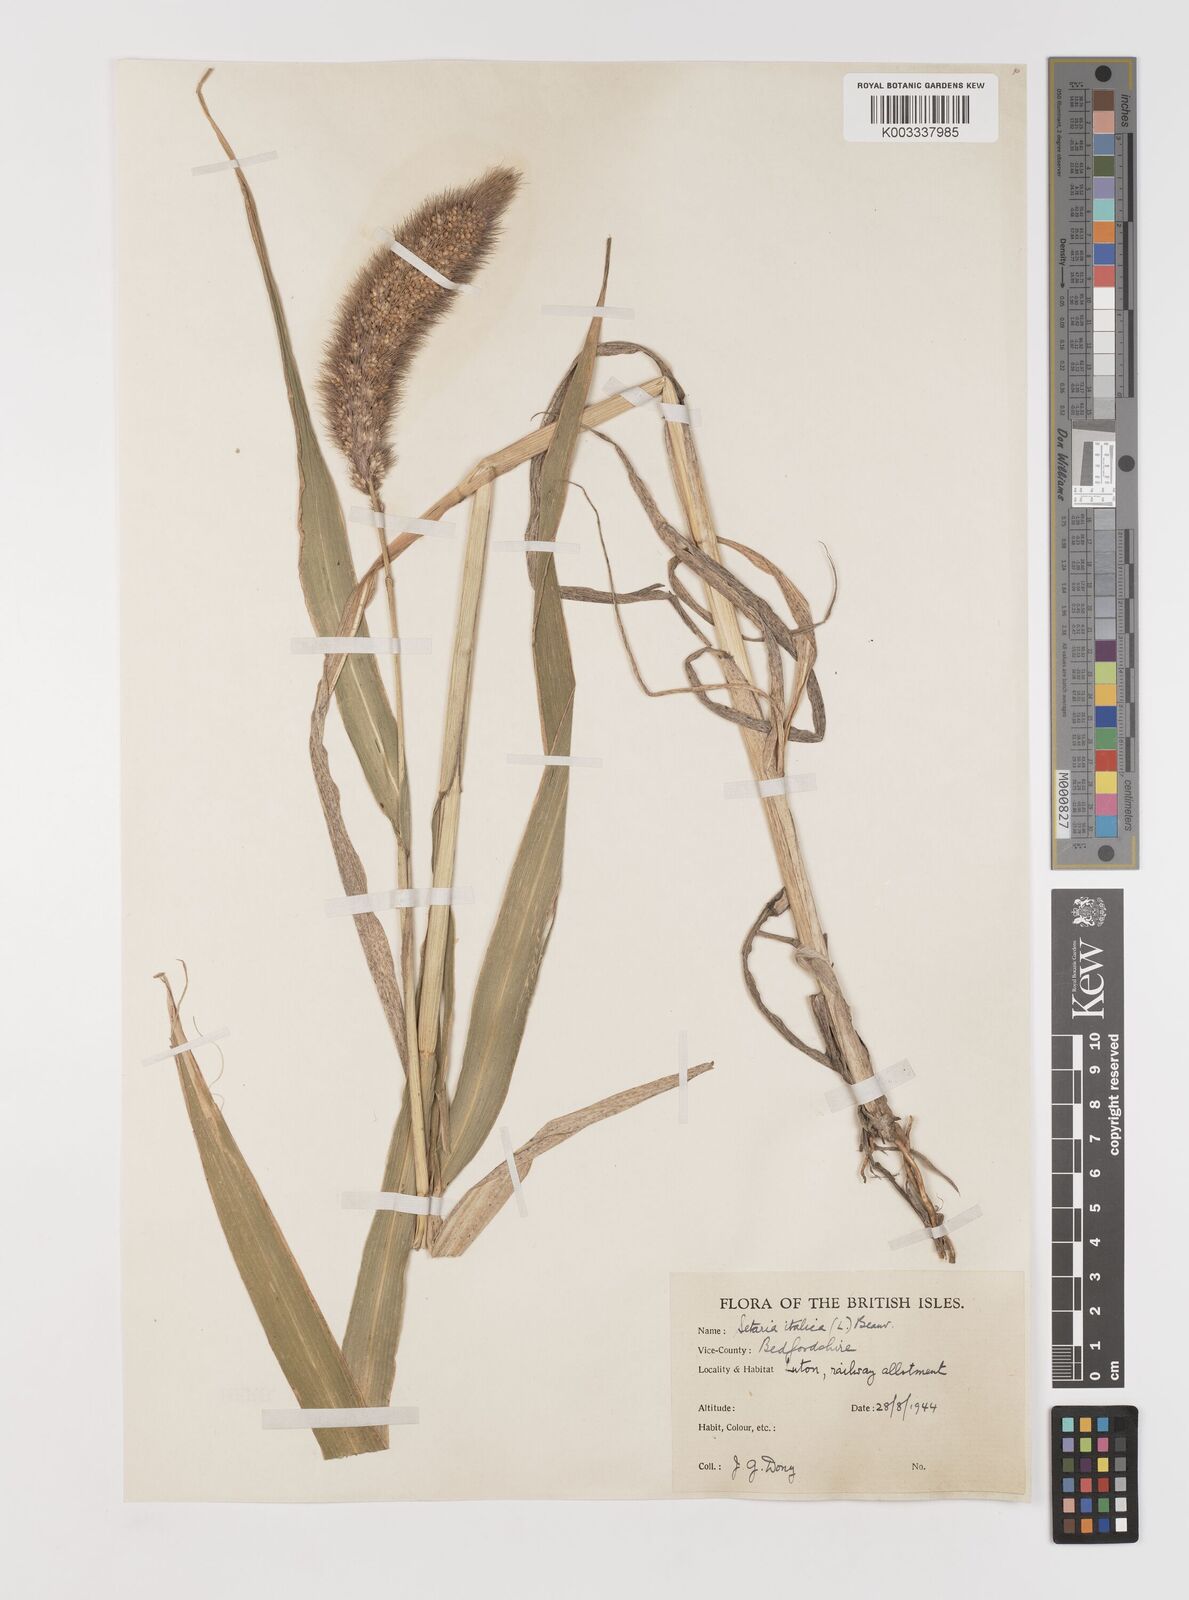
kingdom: Plantae
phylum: Tracheophyta
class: Liliopsida
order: Poales
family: Poaceae
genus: Setaria
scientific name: Setaria italica
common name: Foxtail bristle-grass
